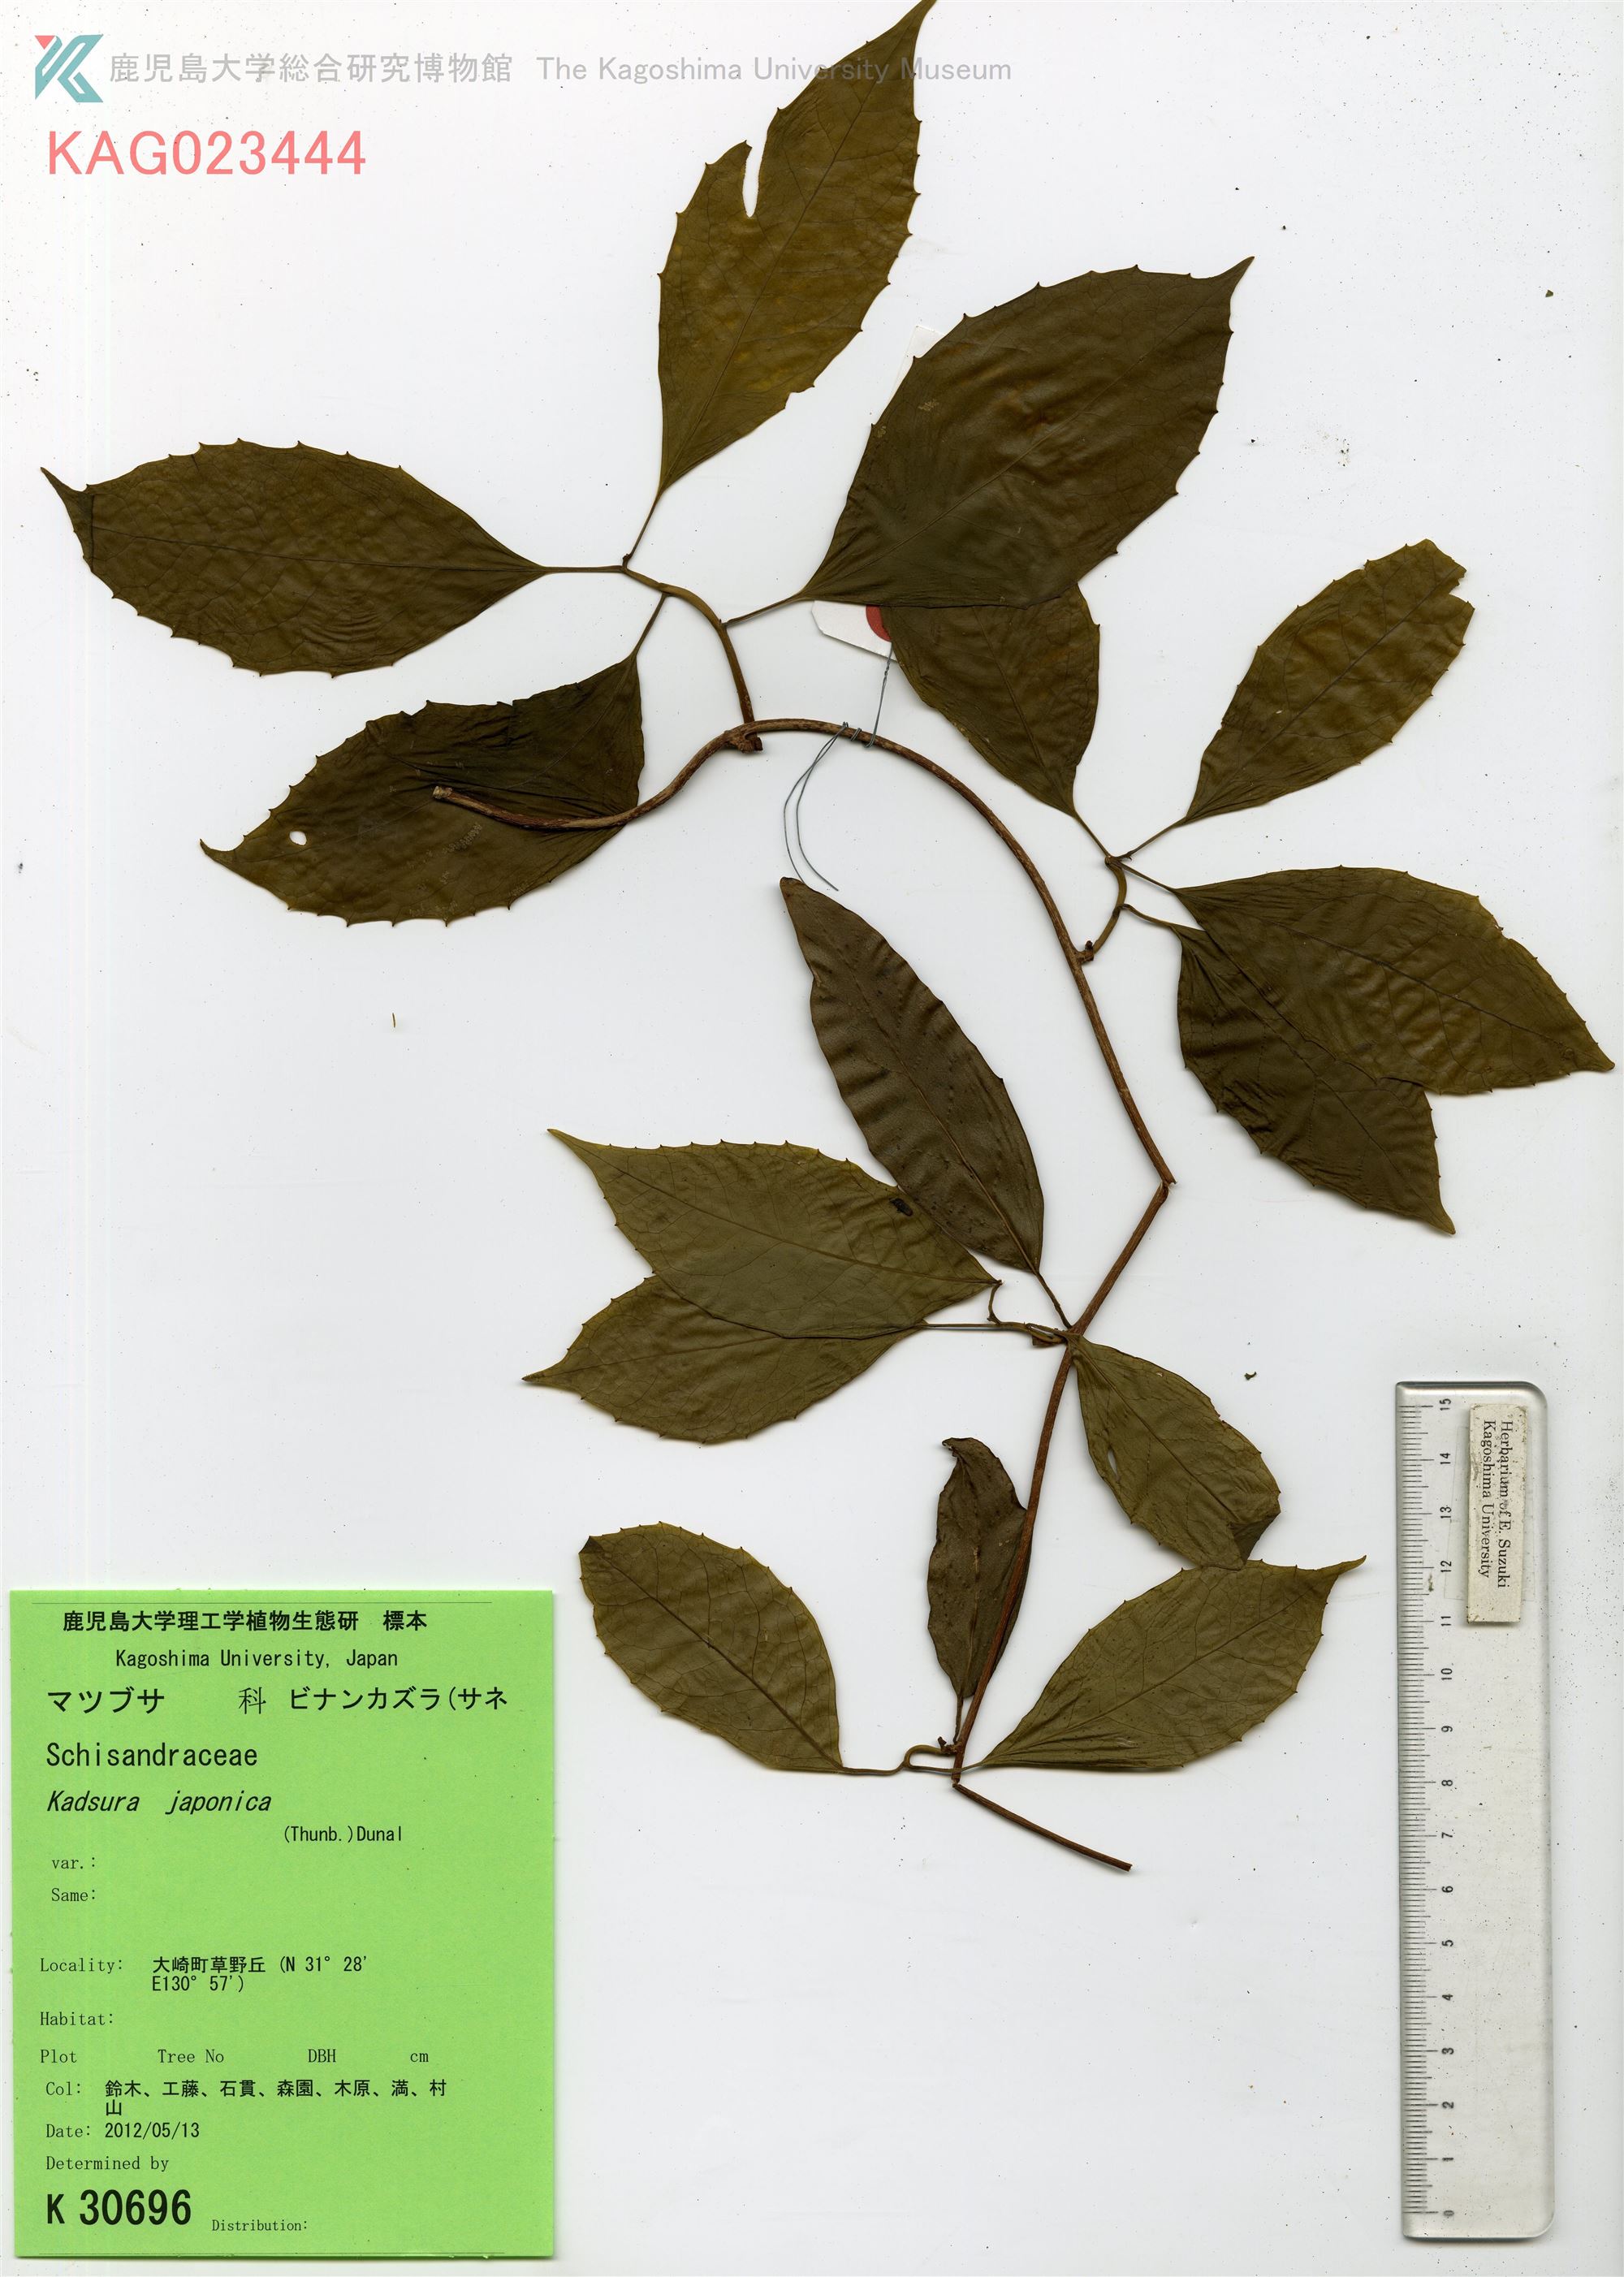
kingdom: Plantae
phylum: Tracheophyta
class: Magnoliopsida
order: Austrobaileyales
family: Schisandraceae
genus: Kadsura
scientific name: Kadsura japonica
